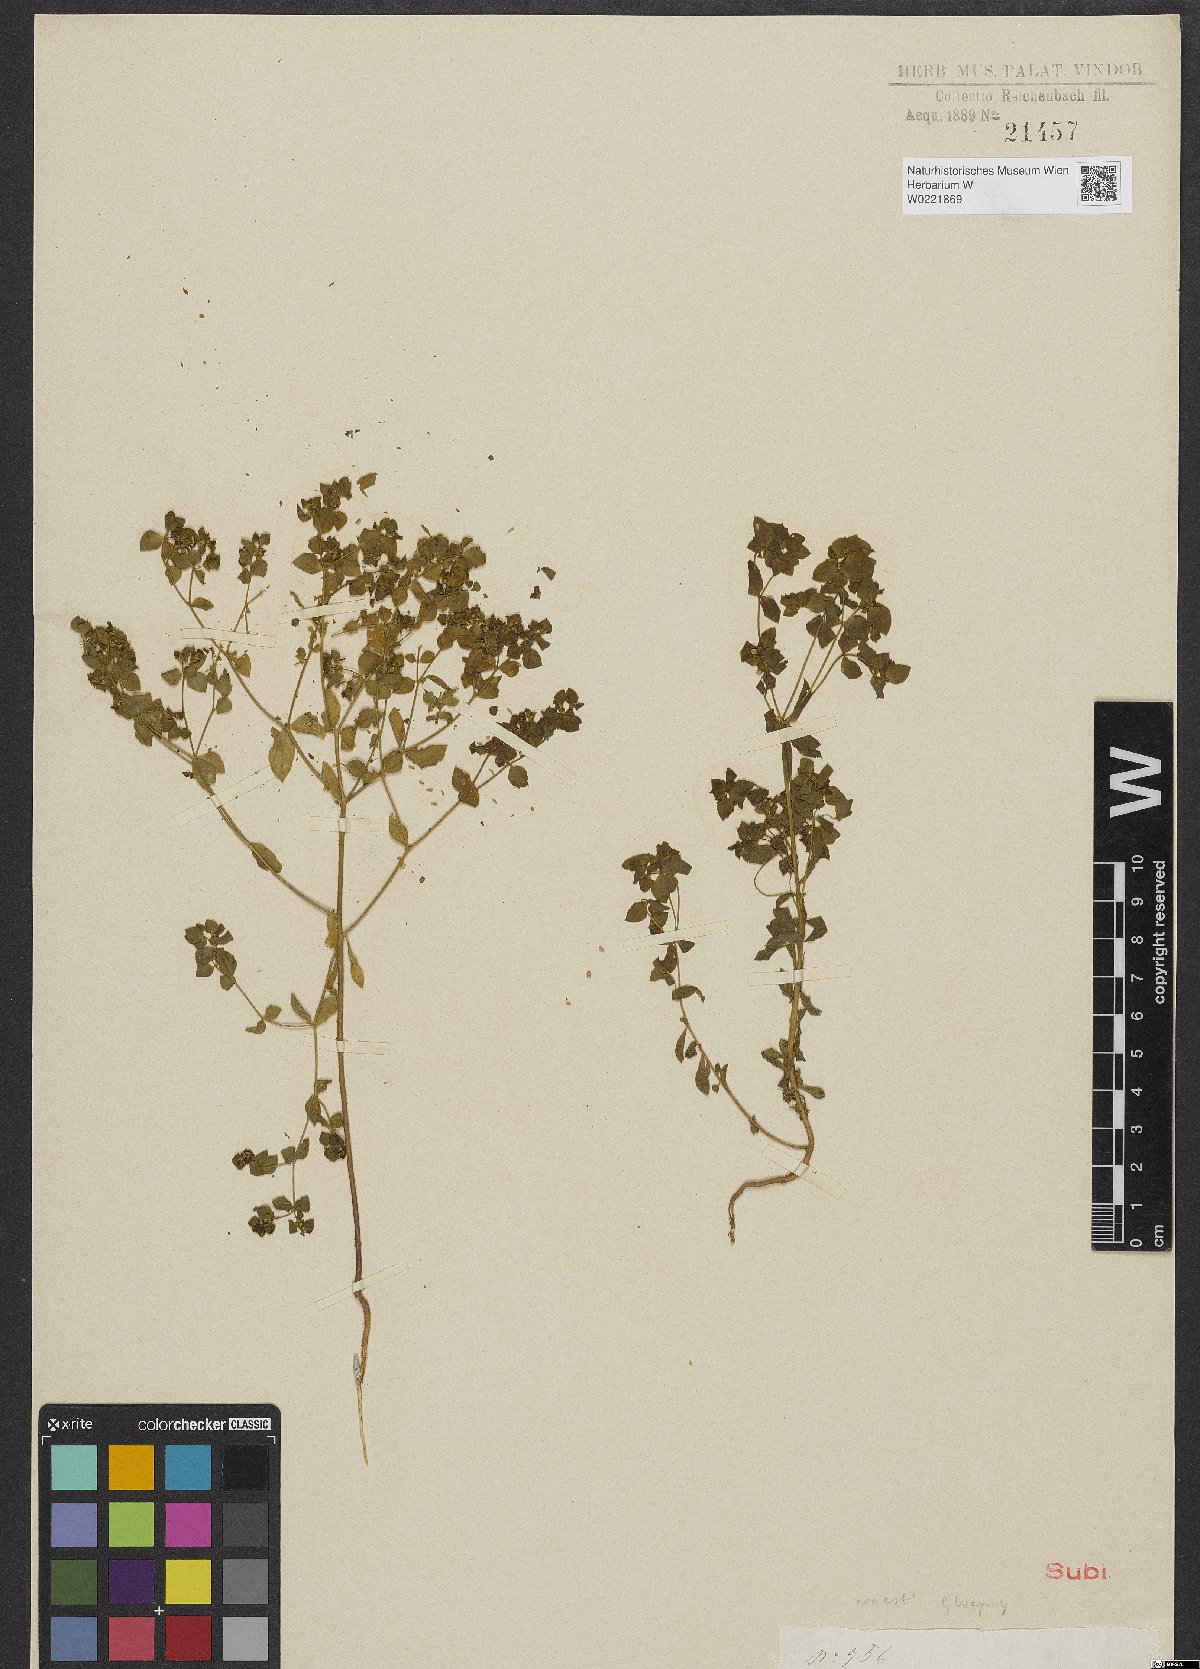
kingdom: Plantae
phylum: Tracheophyta
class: Magnoliopsida
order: Malpighiales
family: Euphorbiaceae
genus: Euphorbia
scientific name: Euphorbia aulacosperma
